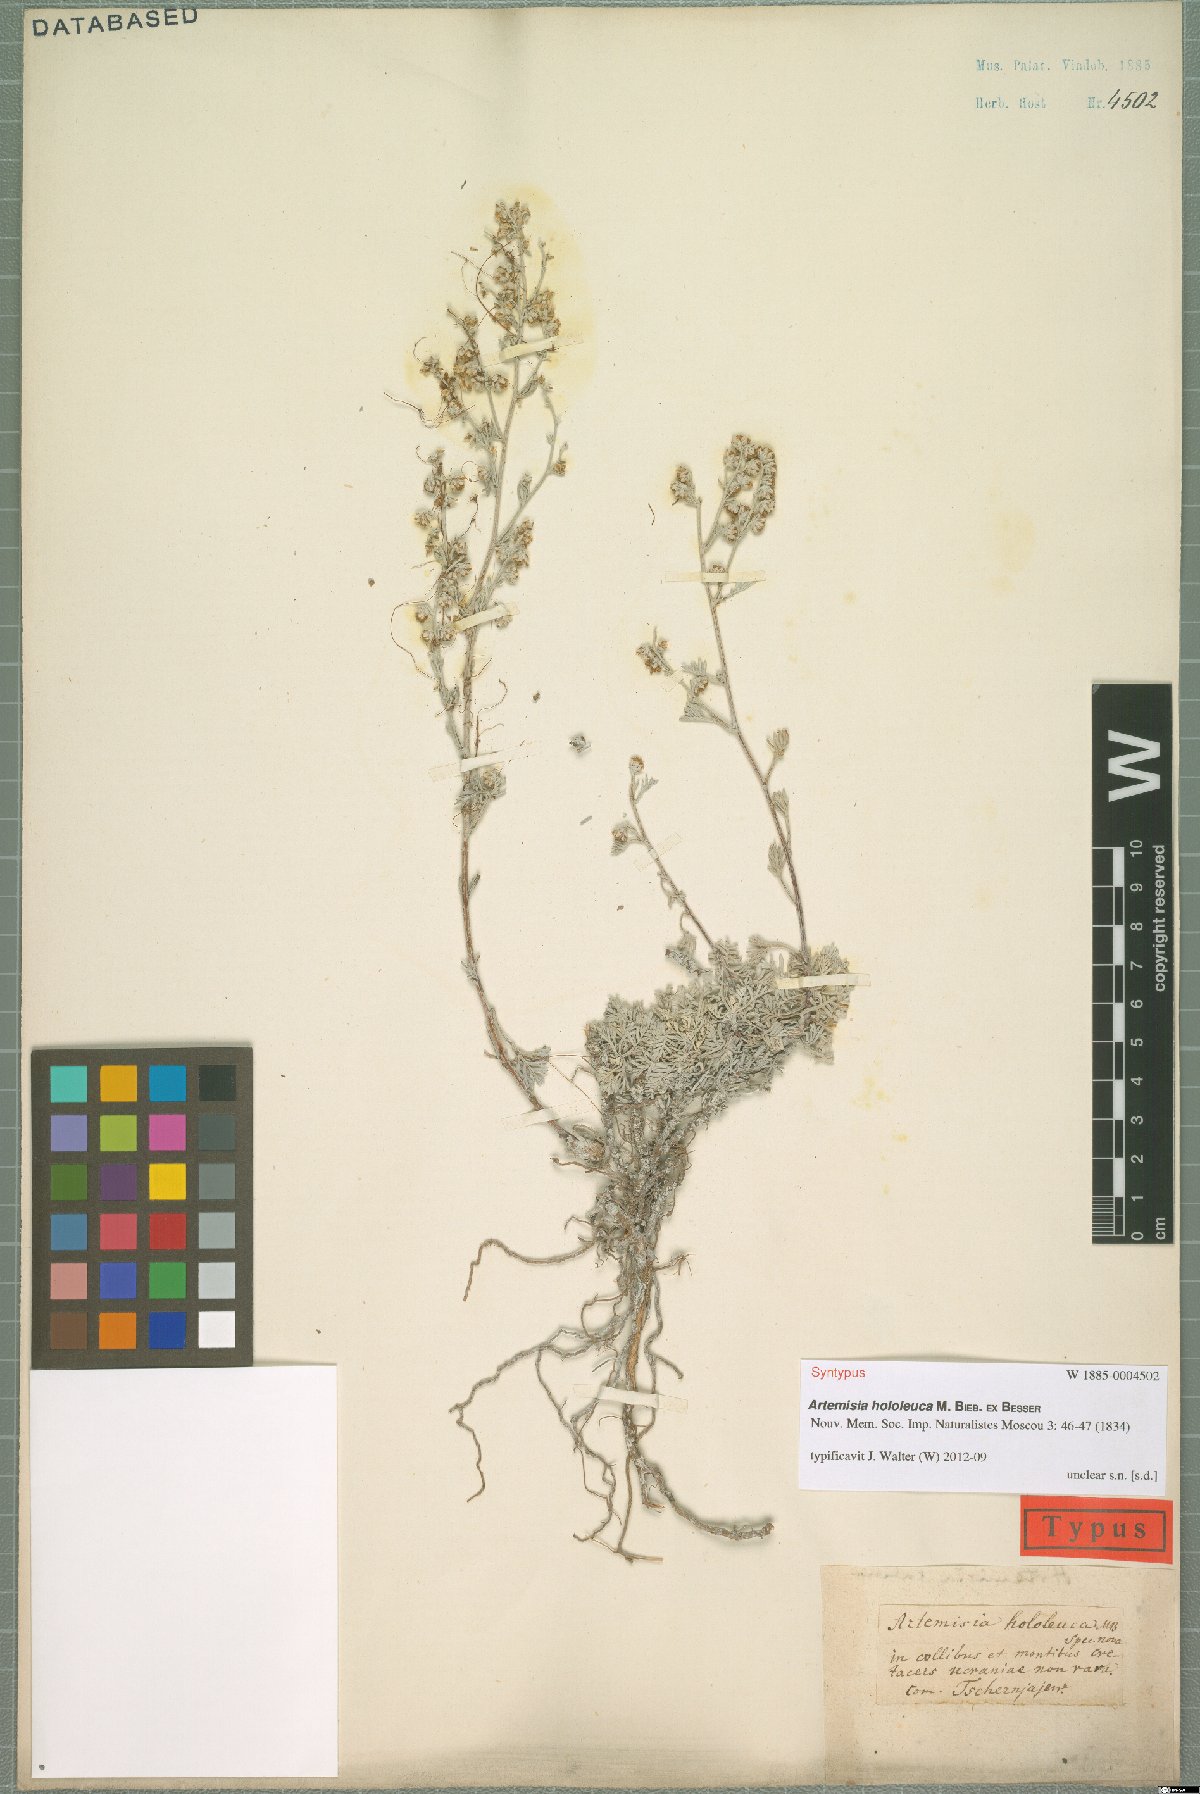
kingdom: Plantae
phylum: Tracheophyta
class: Magnoliopsida
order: Asterales
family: Asteraceae
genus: Artemisia
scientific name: Artemisia hololeuca
